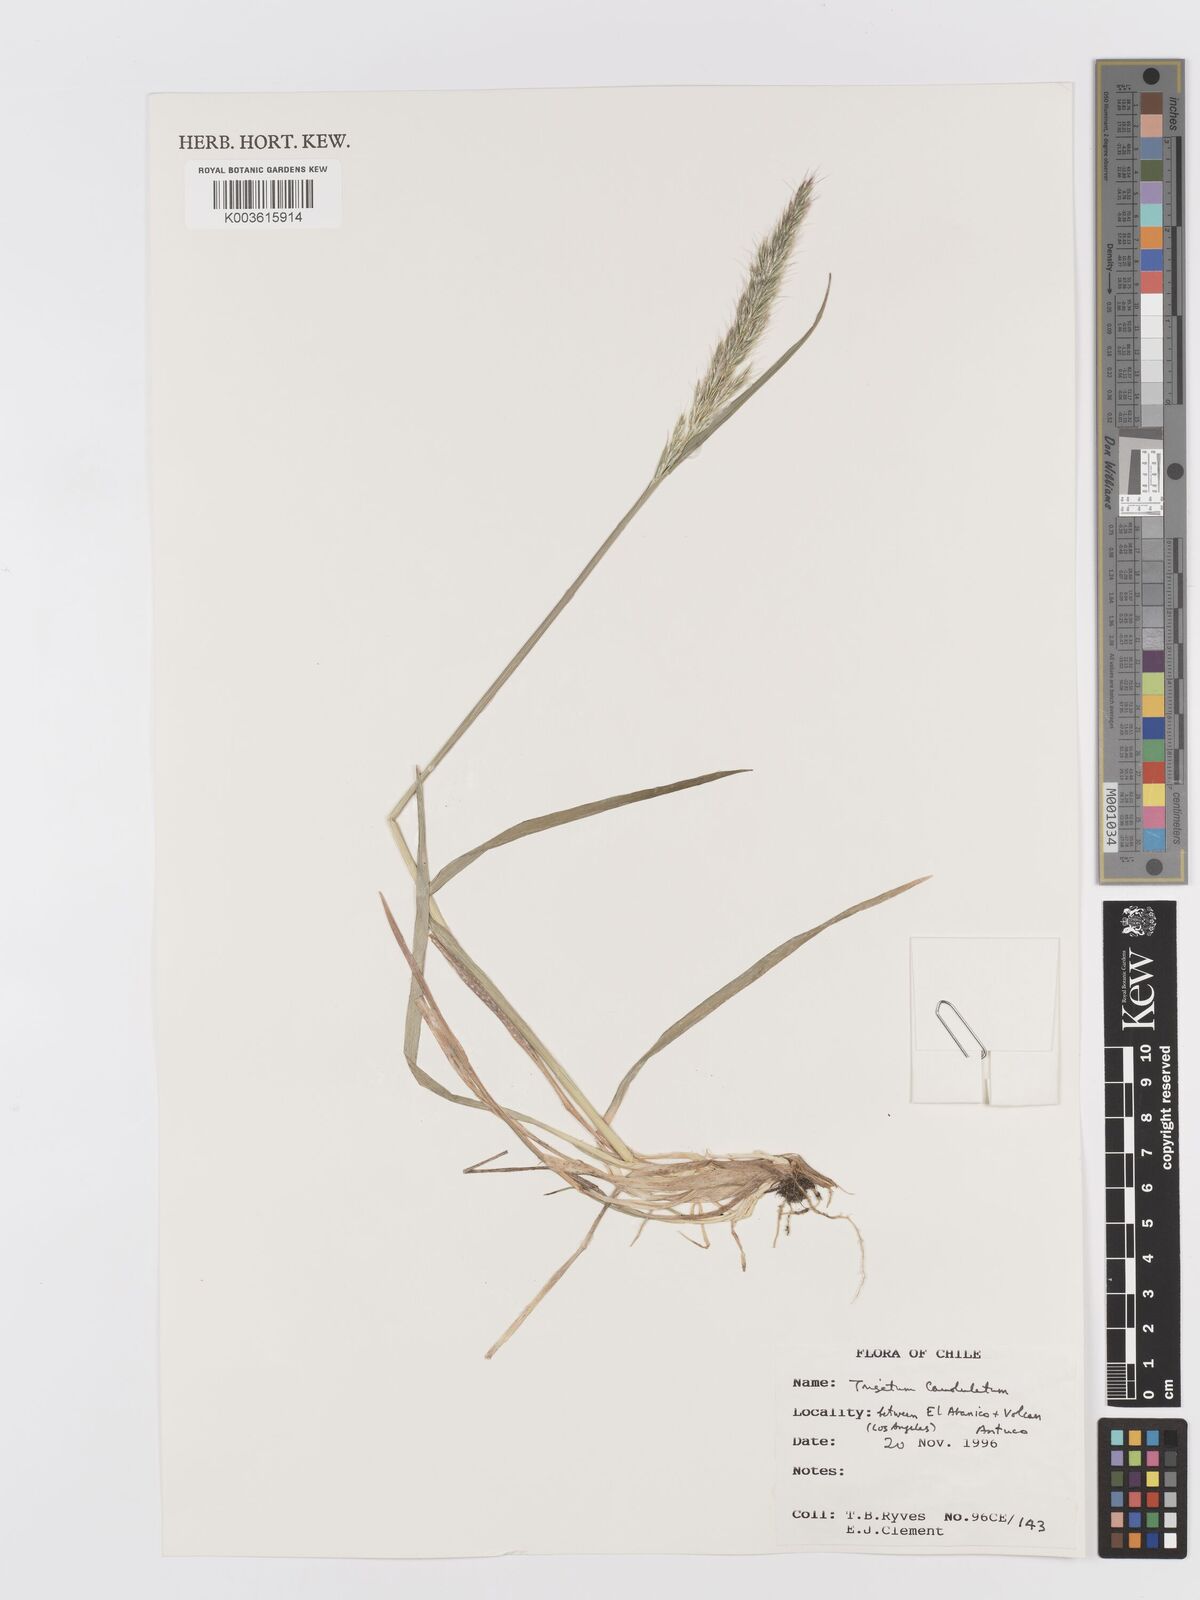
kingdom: Plantae
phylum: Tracheophyta
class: Liliopsida
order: Poales
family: Poaceae
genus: Trisetum
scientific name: Trisetum caudulatum
